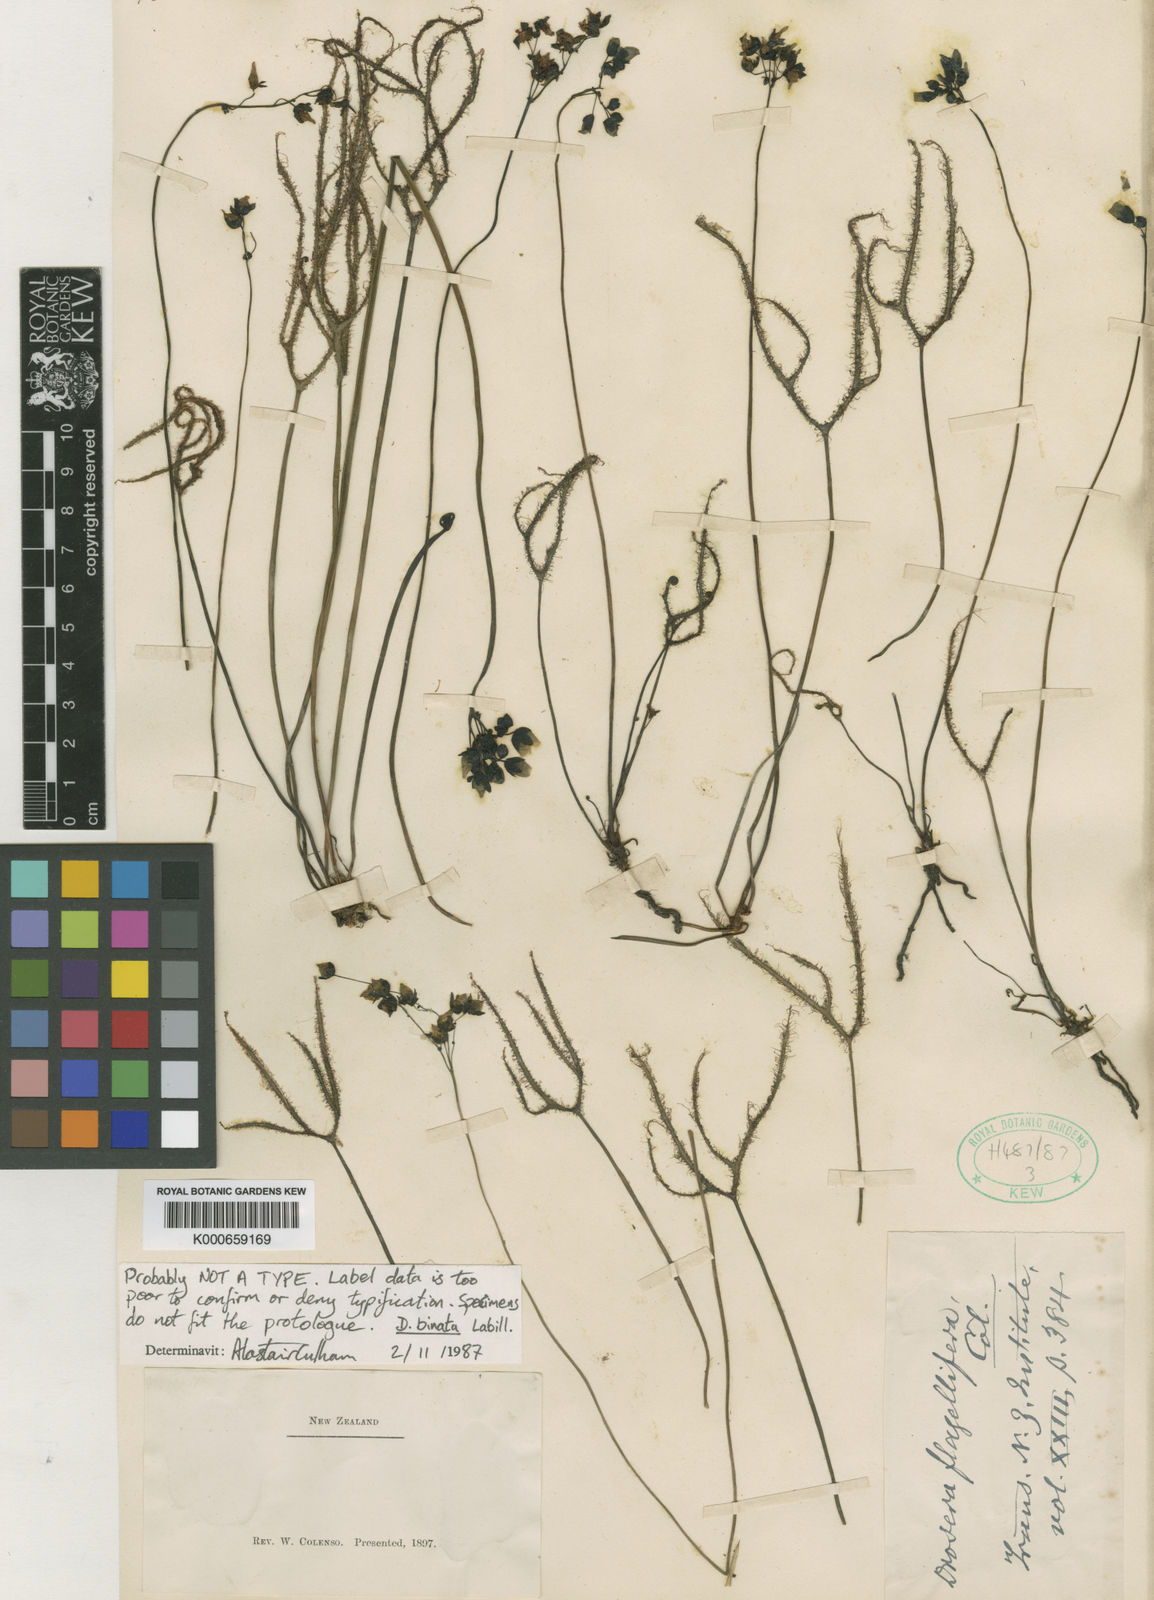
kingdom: Plantae
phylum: Tracheophyta
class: Magnoliopsida
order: Caryophyllales
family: Droseraceae
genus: Drosera
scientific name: Drosera binata
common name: Forked sundew
